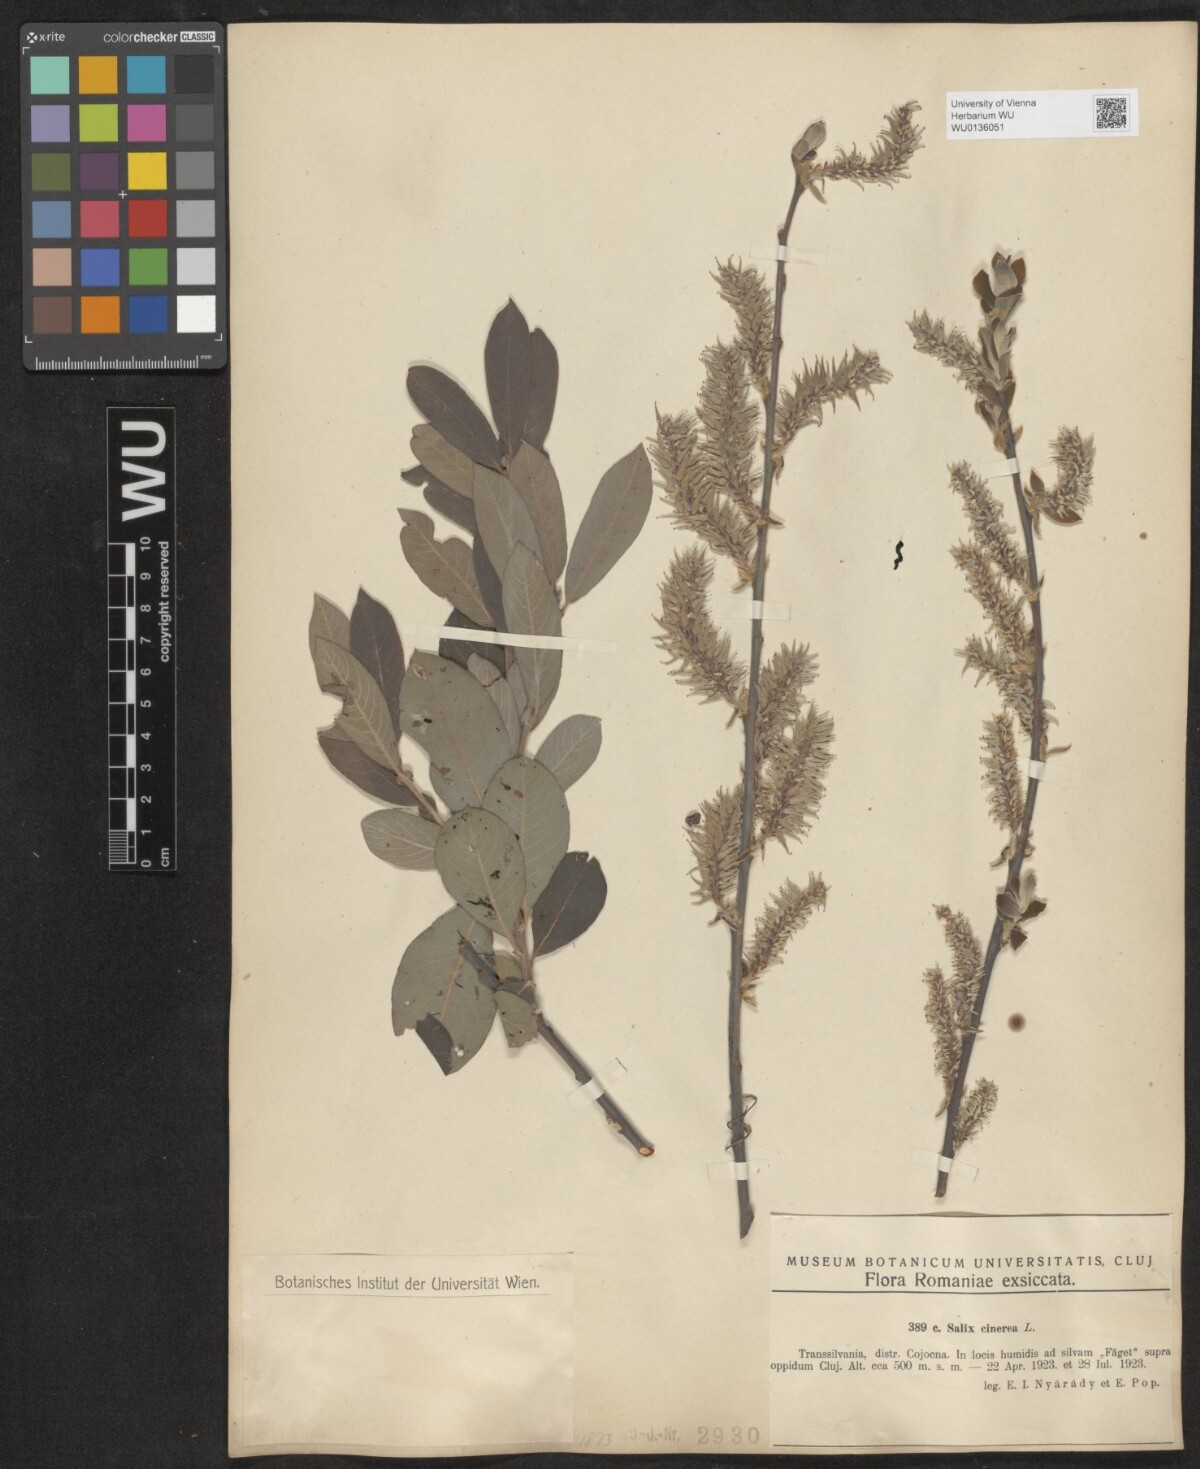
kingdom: Plantae
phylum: Tracheophyta
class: Magnoliopsida
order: Malpighiales
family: Salicaceae
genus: Salix
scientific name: Salix cinerea
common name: Common sallow
